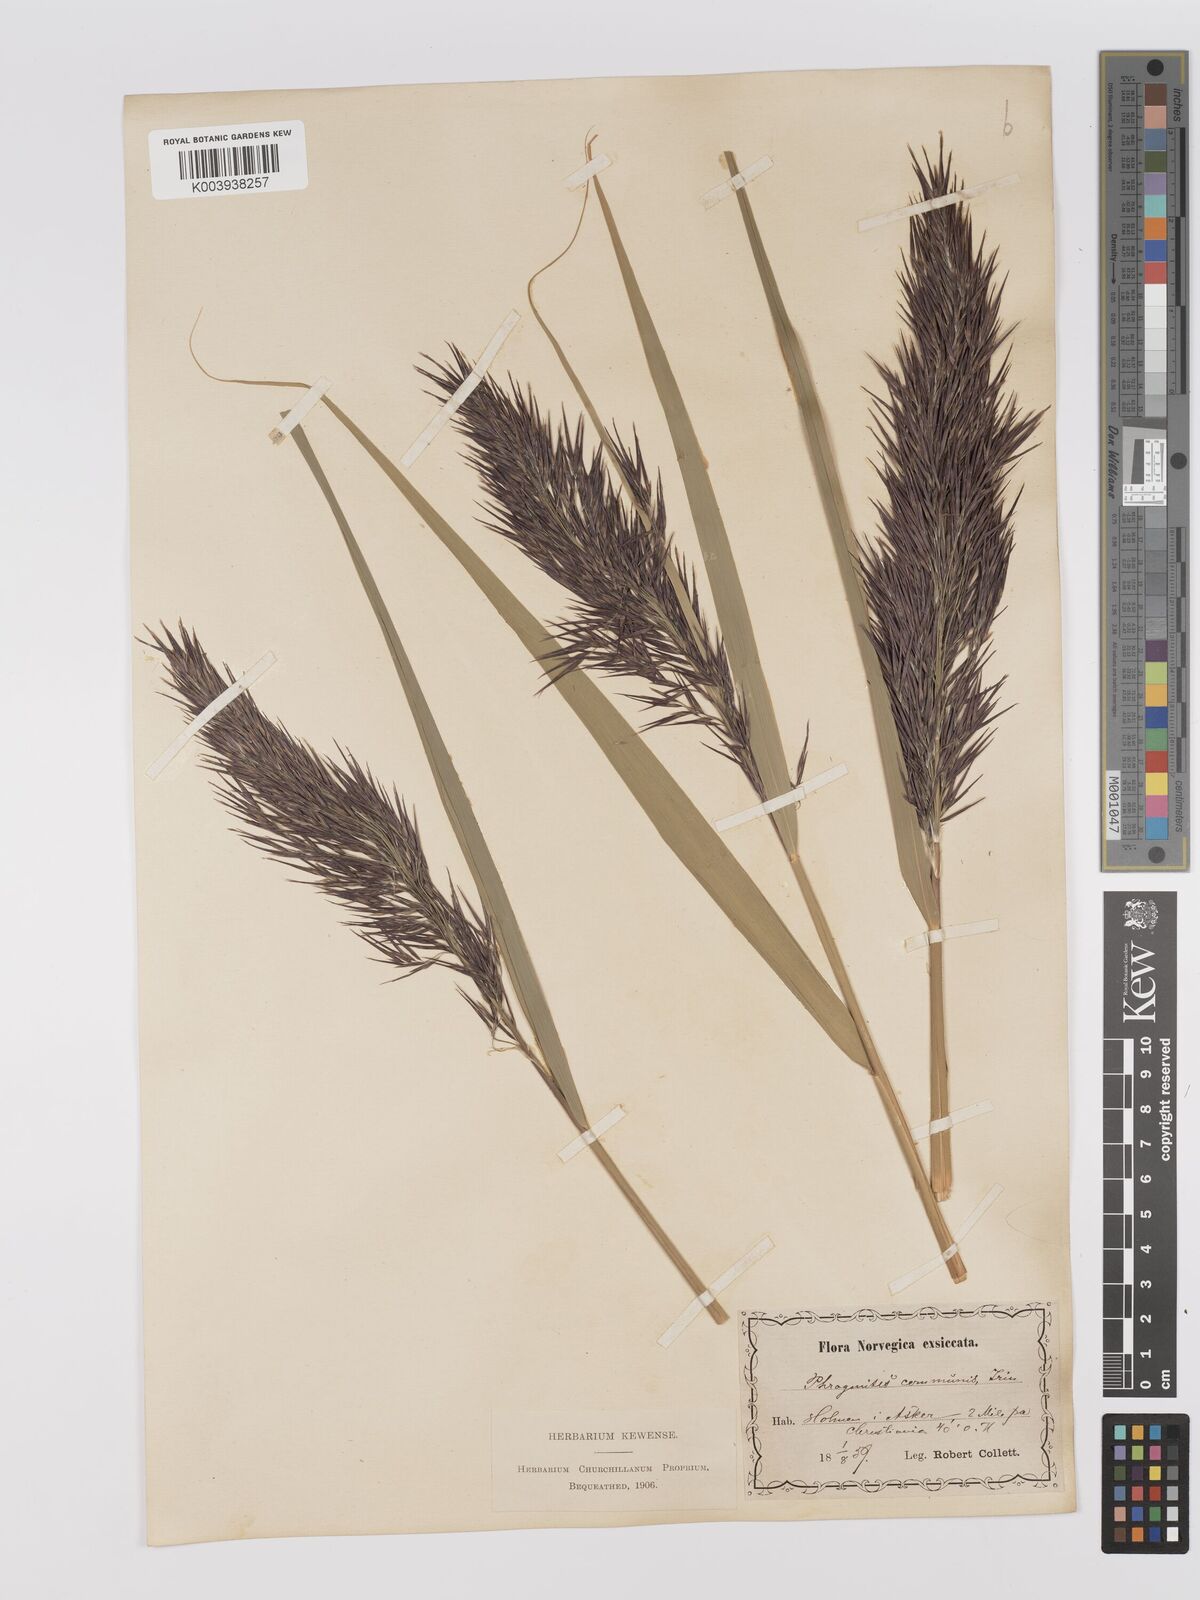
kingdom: Plantae
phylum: Tracheophyta
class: Liliopsida
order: Poales
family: Poaceae
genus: Phragmites
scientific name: Phragmites australis
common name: Common reed
